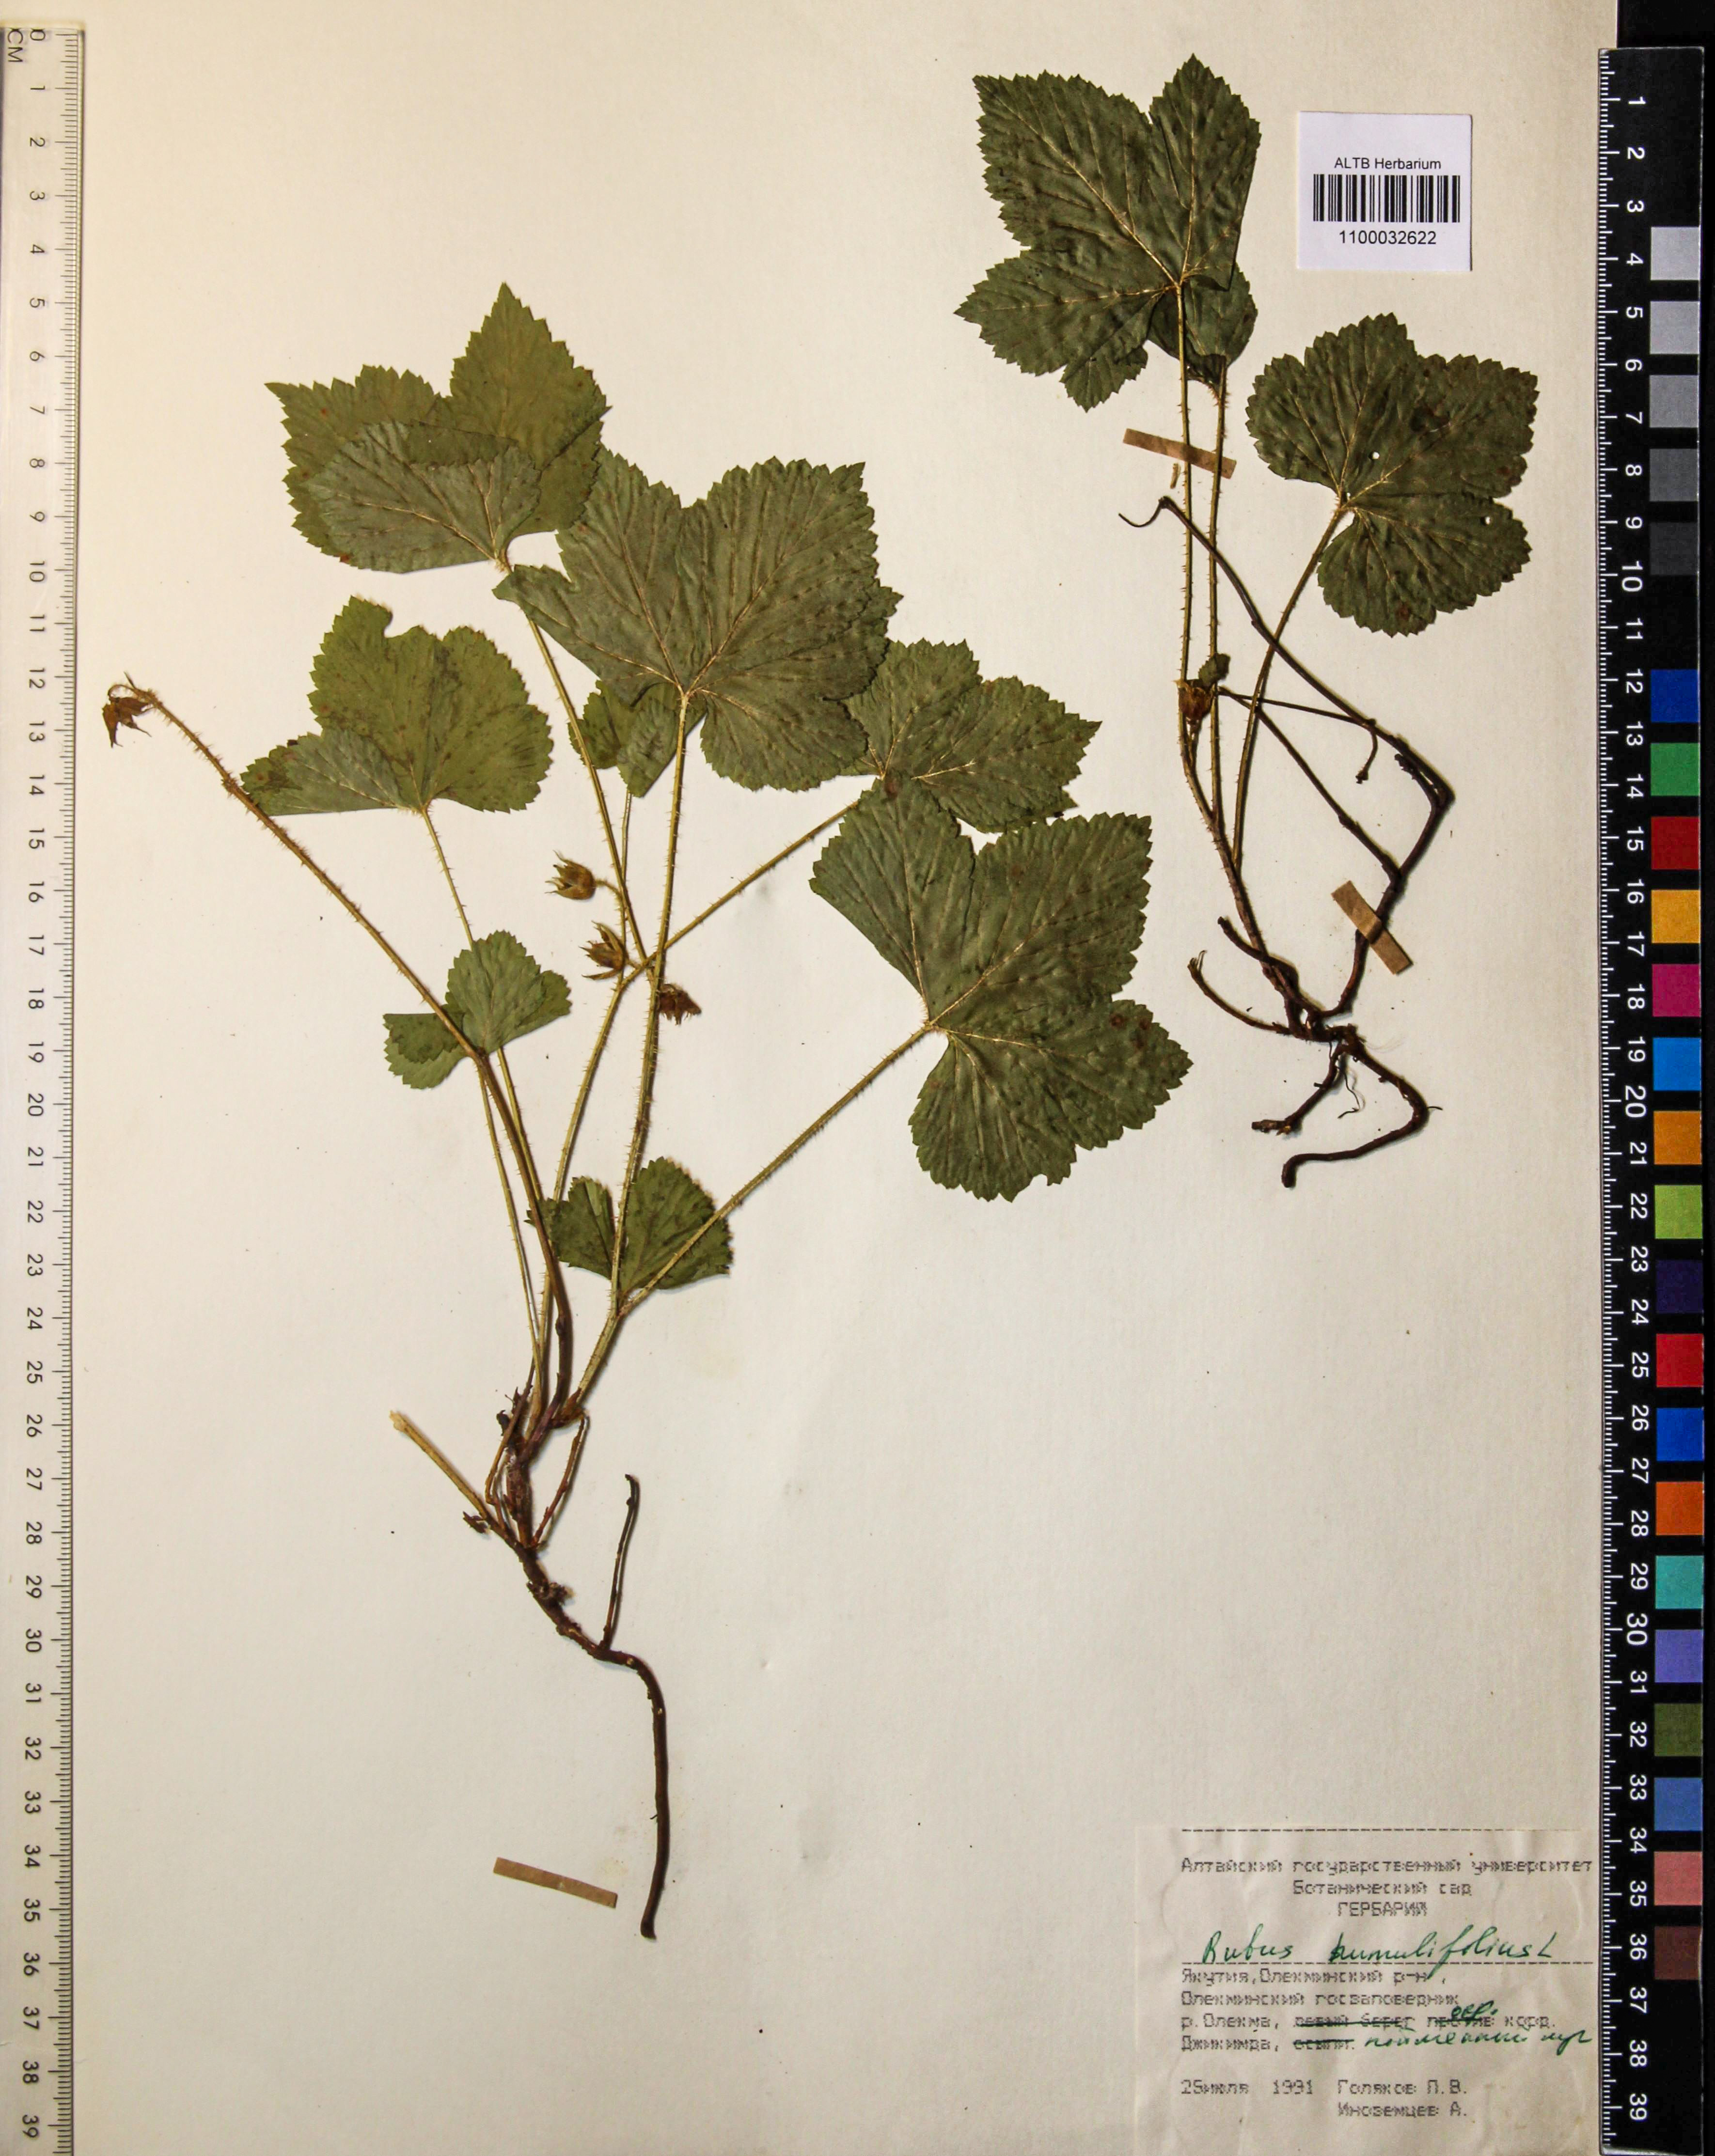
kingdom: Plantae
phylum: Tracheophyta
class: Magnoliopsida
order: Rosales
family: Rosaceae
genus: Rubus
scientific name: Rubus humilifolius
